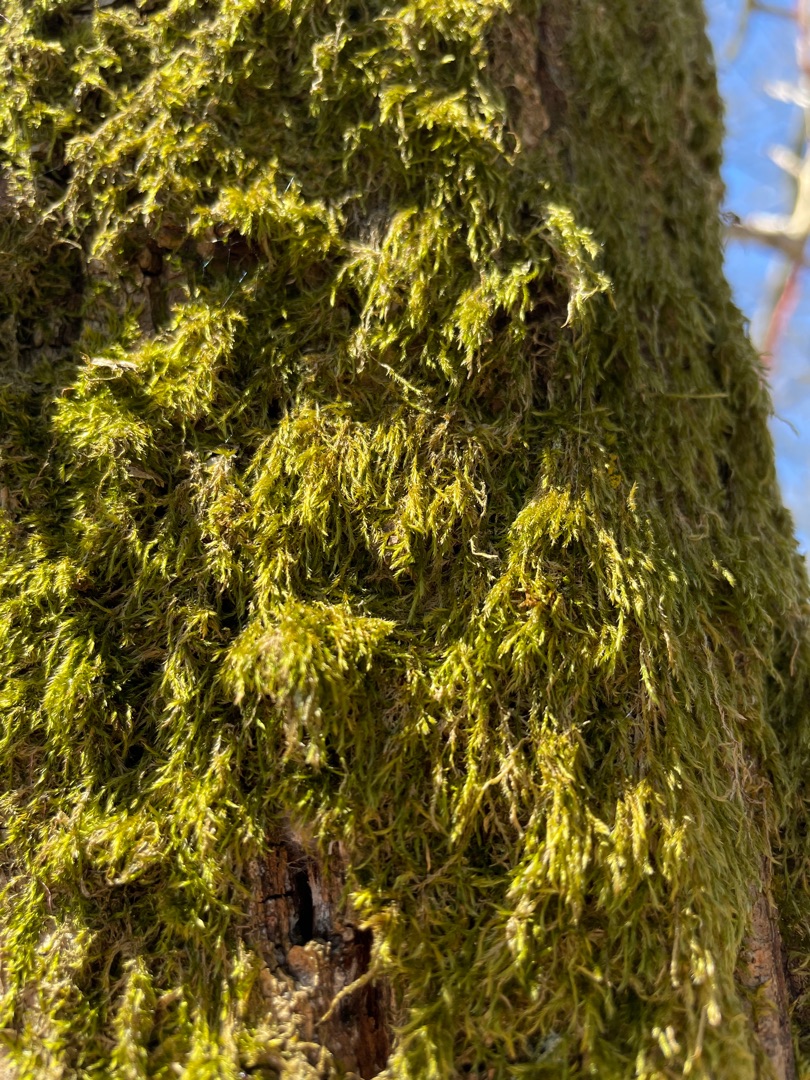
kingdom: Plantae
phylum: Bryophyta
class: Bryopsida
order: Hypnales
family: Hypnaceae
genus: Hypnum
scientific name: Hypnum
